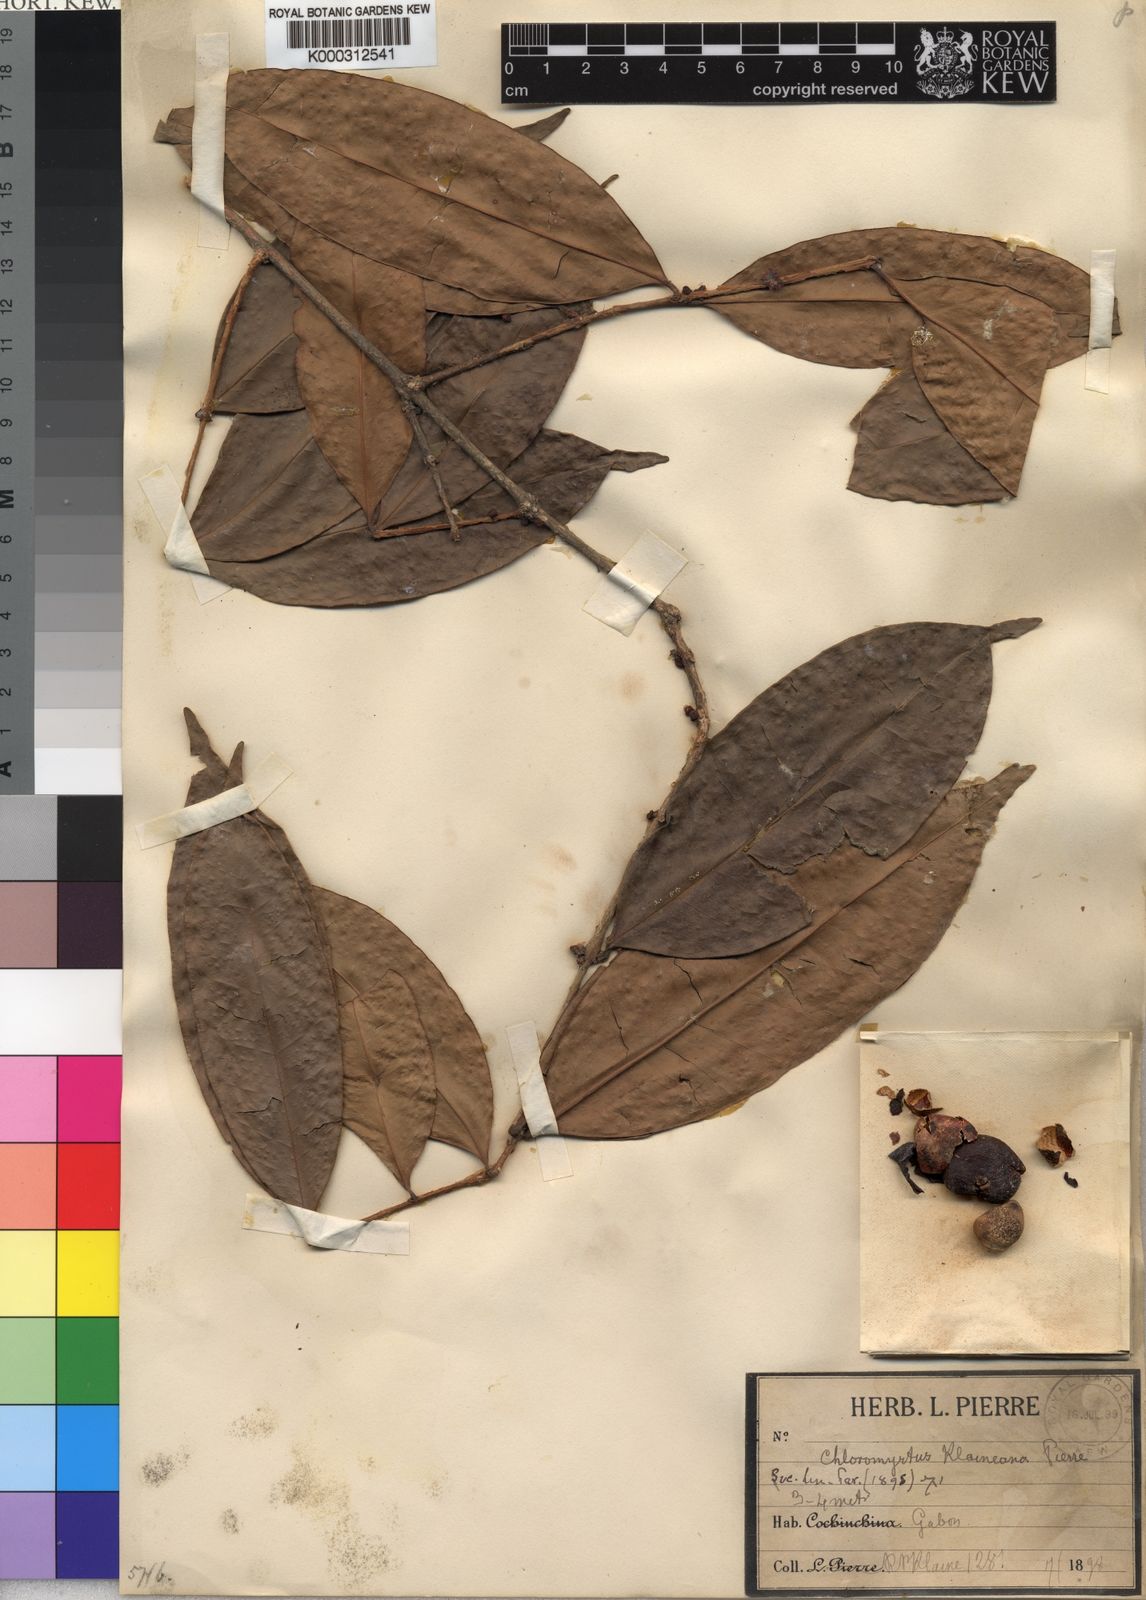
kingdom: Plantae
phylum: Tracheophyta
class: Magnoliopsida
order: Myrtales
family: Myrtaceae
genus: Eugenia
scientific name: Eugenia klaineana
